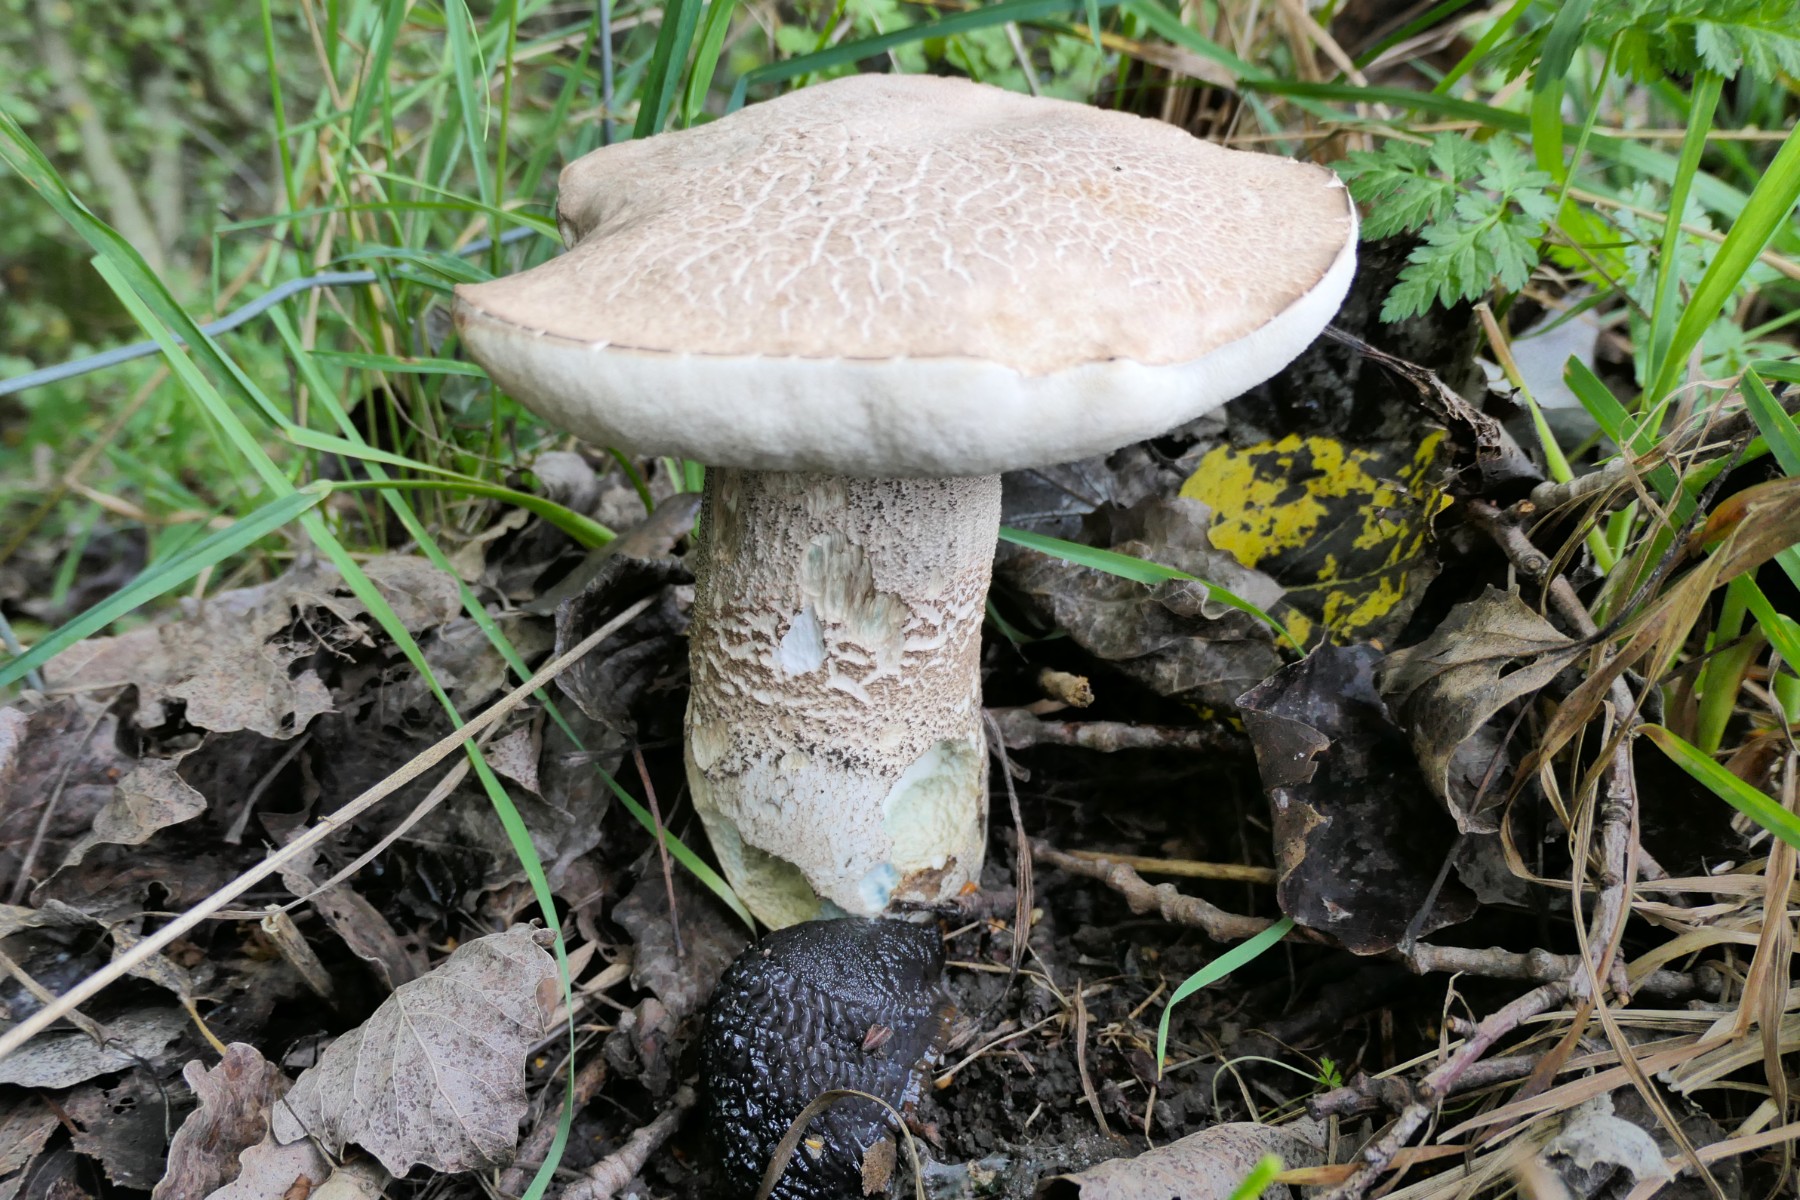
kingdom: Fungi
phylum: Basidiomycota
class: Agaricomycetes
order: Boletales
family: Boletaceae
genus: Leccinum
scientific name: Leccinum duriusculum
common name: poppel-skælrørhat
